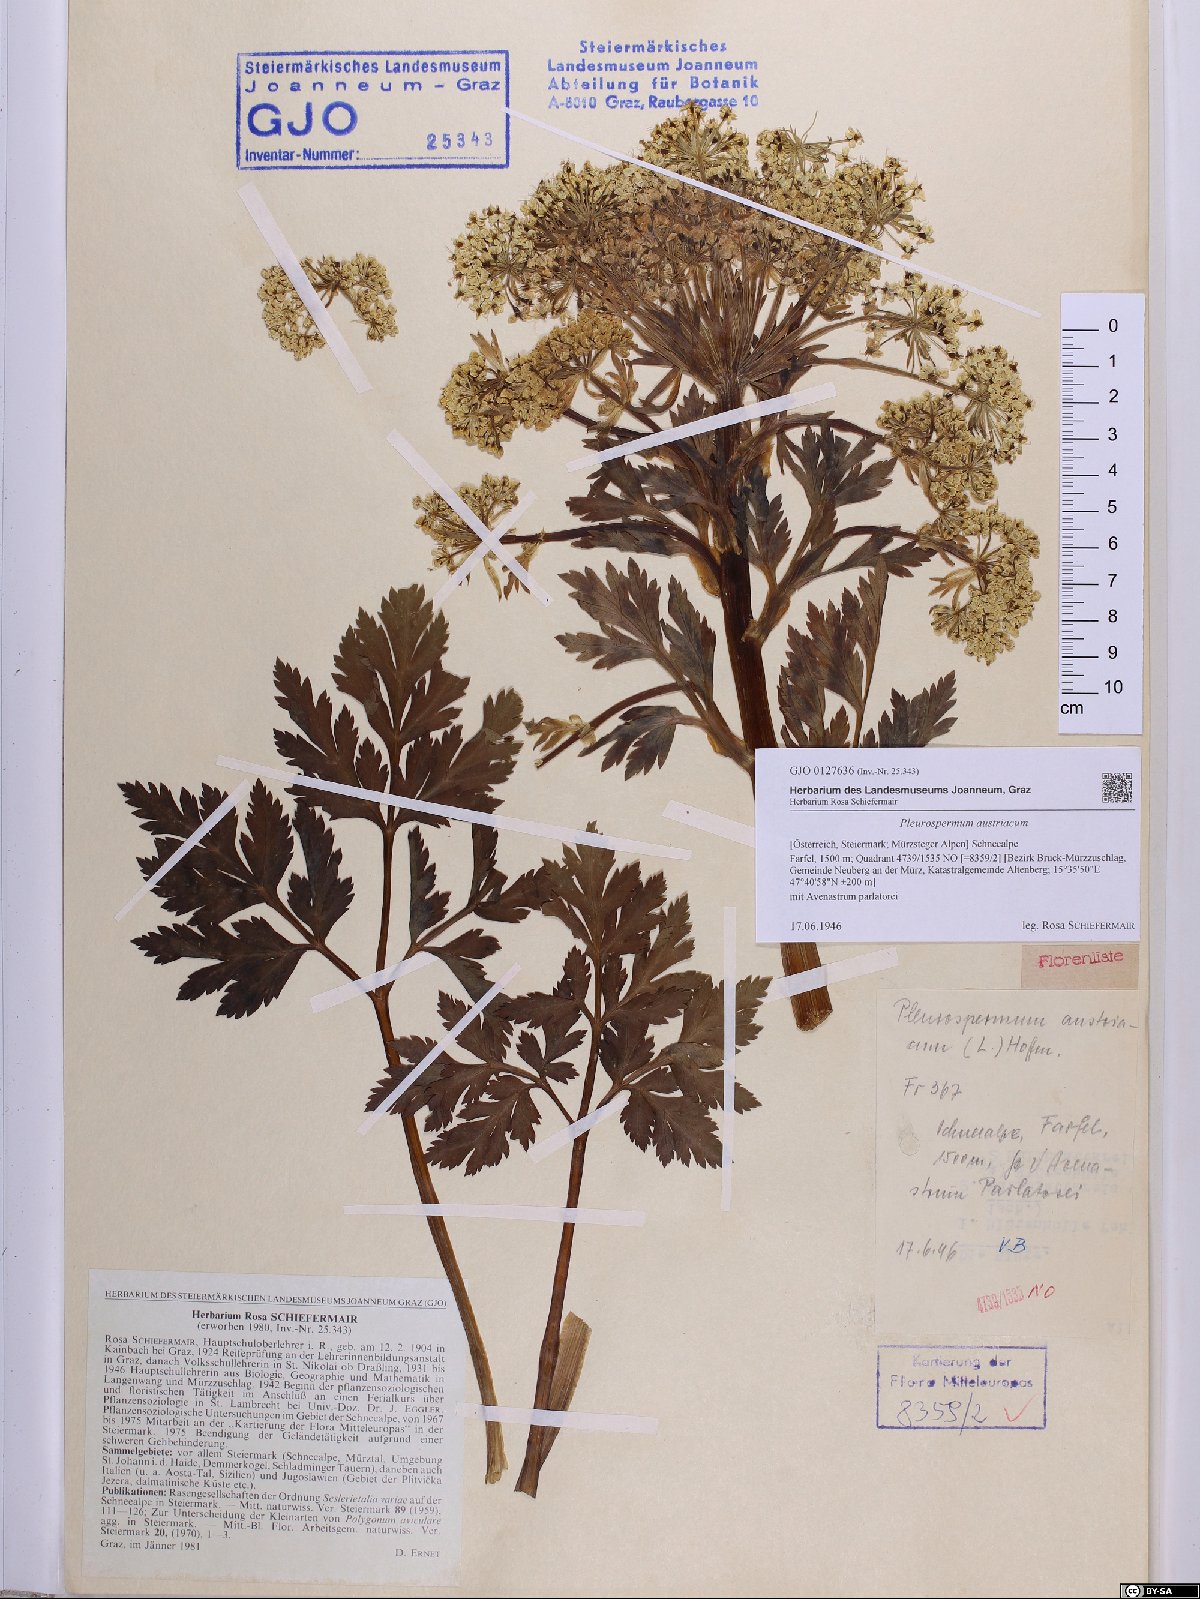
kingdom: Plantae
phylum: Tracheophyta
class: Magnoliopsida
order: Apiales
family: Apiaceae
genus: Pleurospermum
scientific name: Pleurospermum austriacum
